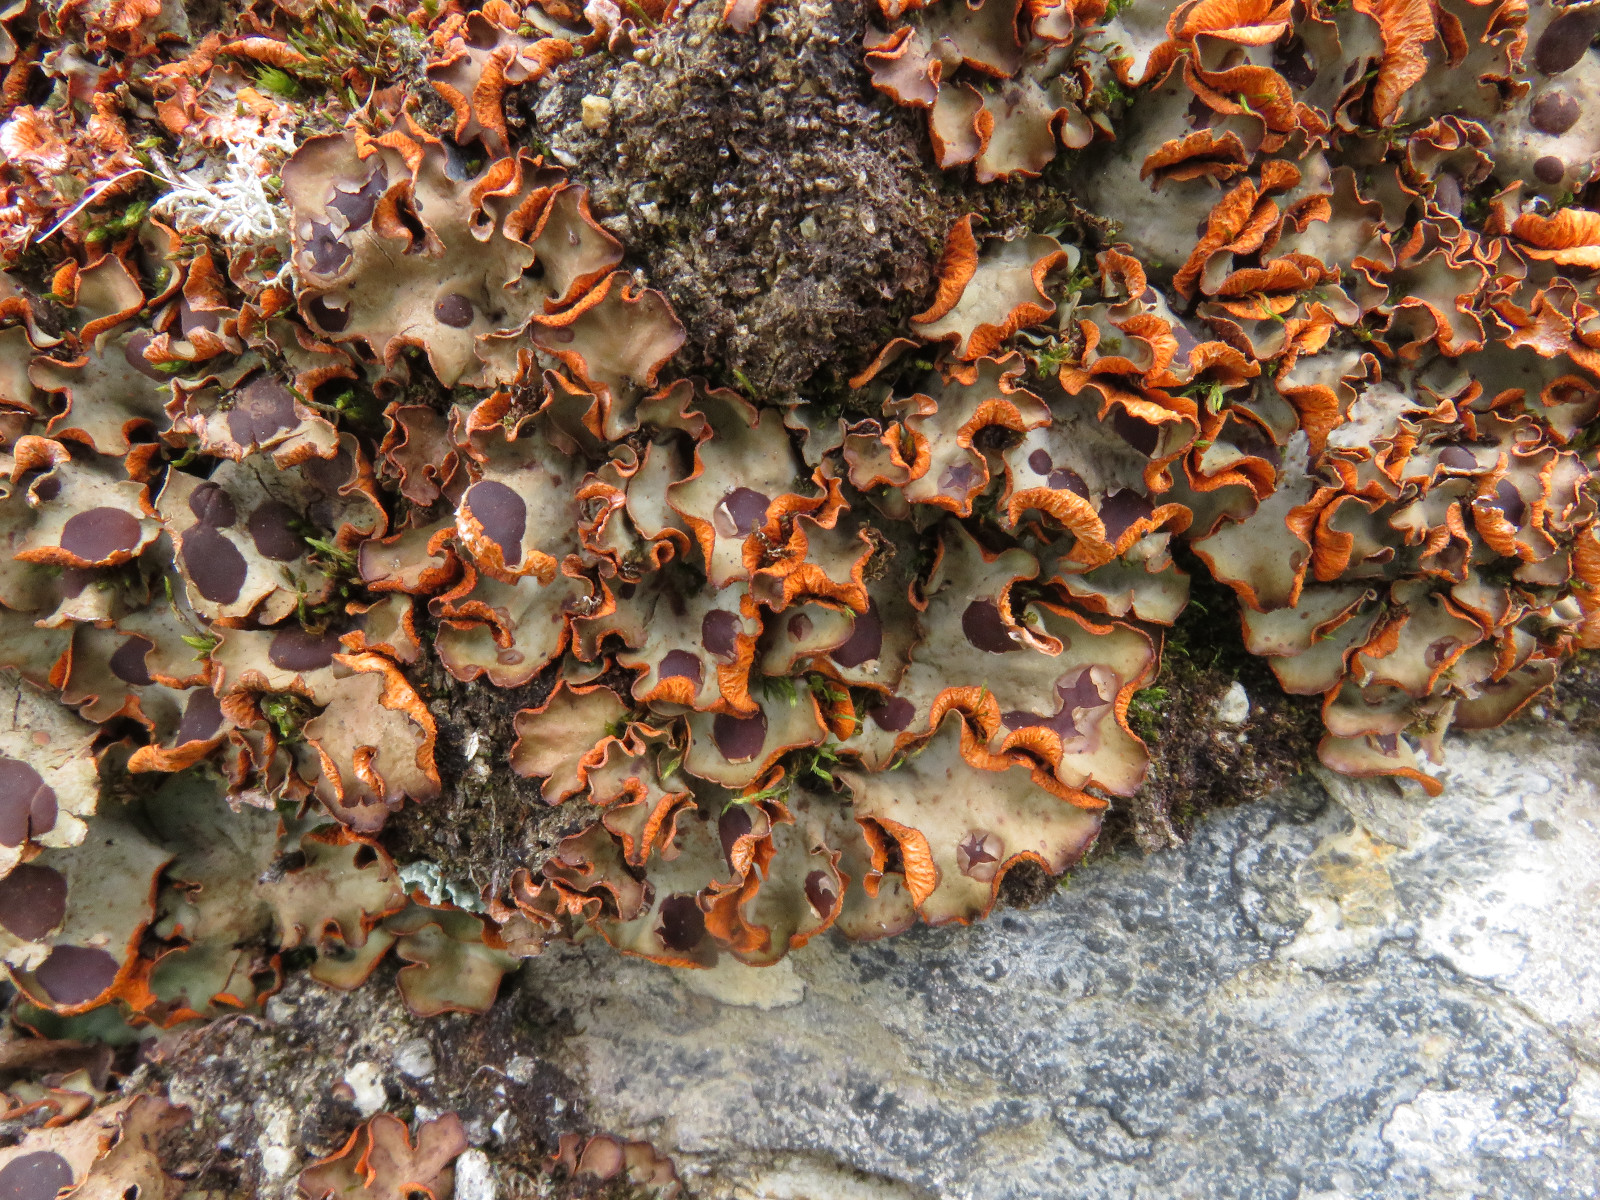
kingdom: Fungi
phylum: Ascomycota
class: Lecanoromycetes
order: Peltigerales
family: Peltigeraceae
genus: Solorina
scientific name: Solorina crocea
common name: Mountain saffron
